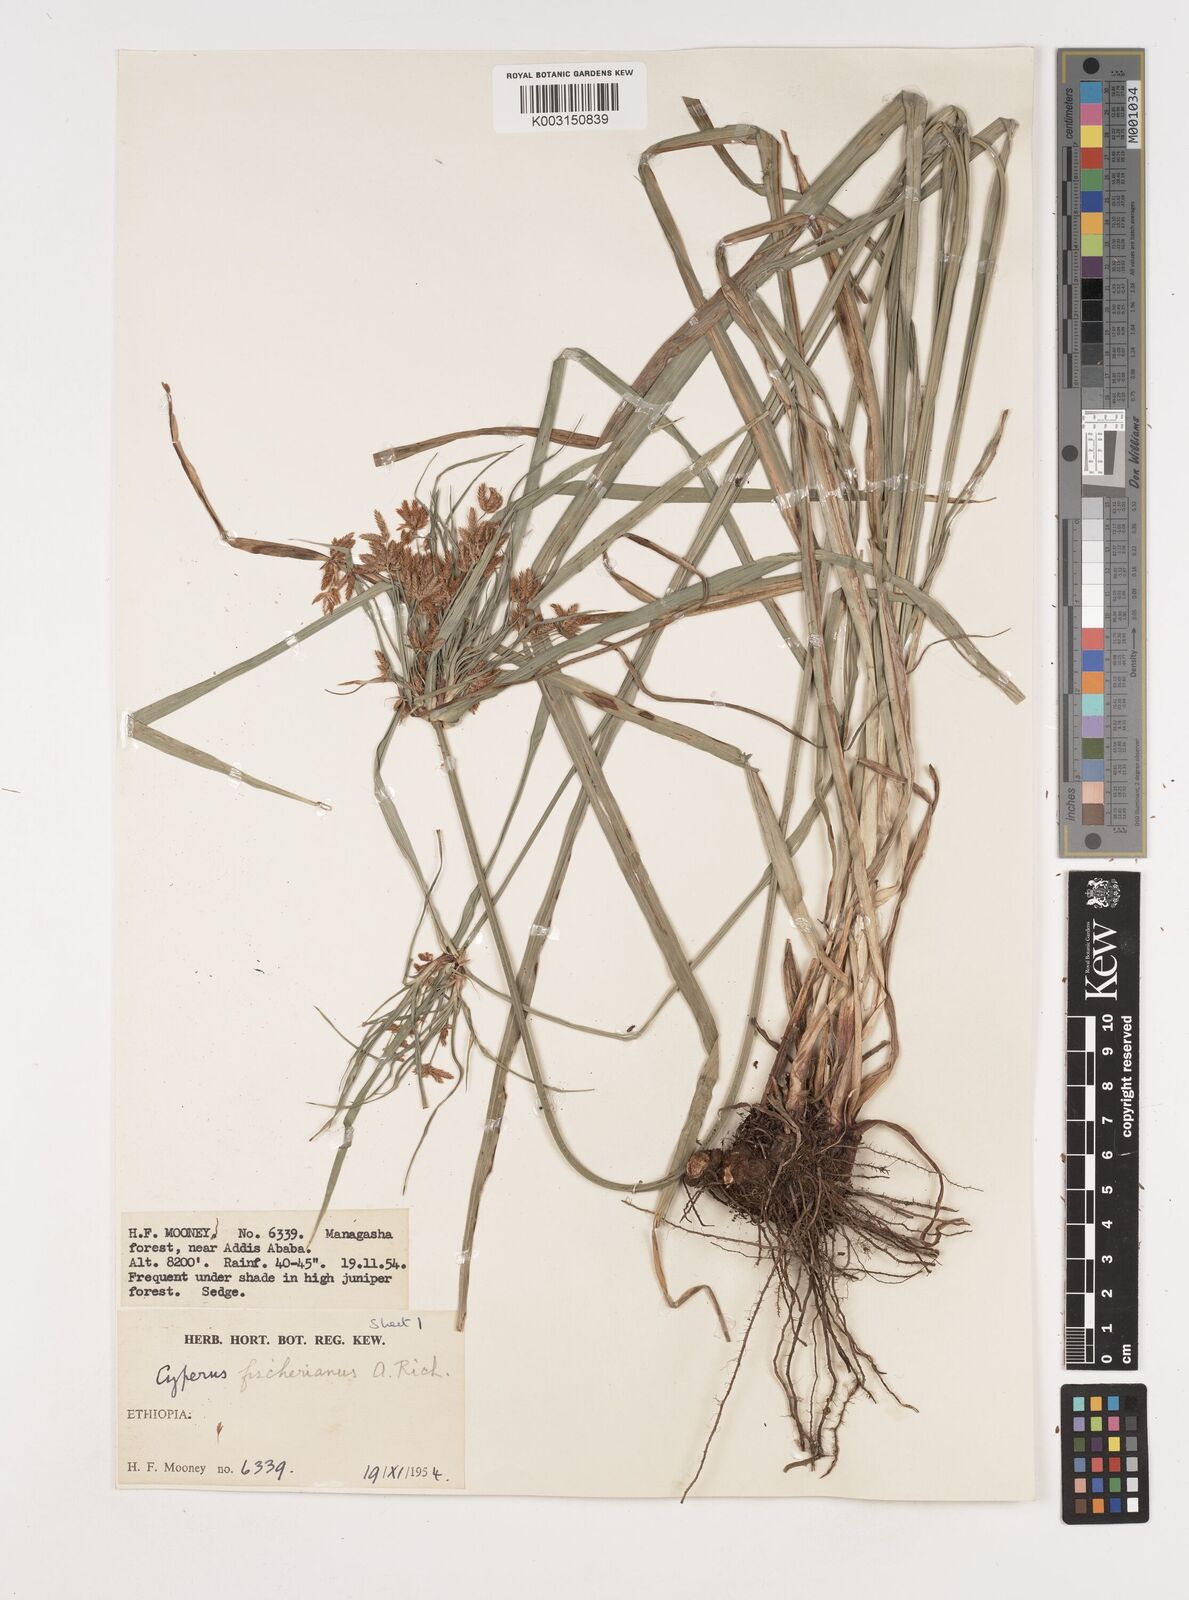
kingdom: Plantae
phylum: Tracheophyta
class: Liliopsida
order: Poales
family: Cyperaceae
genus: Cyperus
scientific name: Cyperus fischerianus
